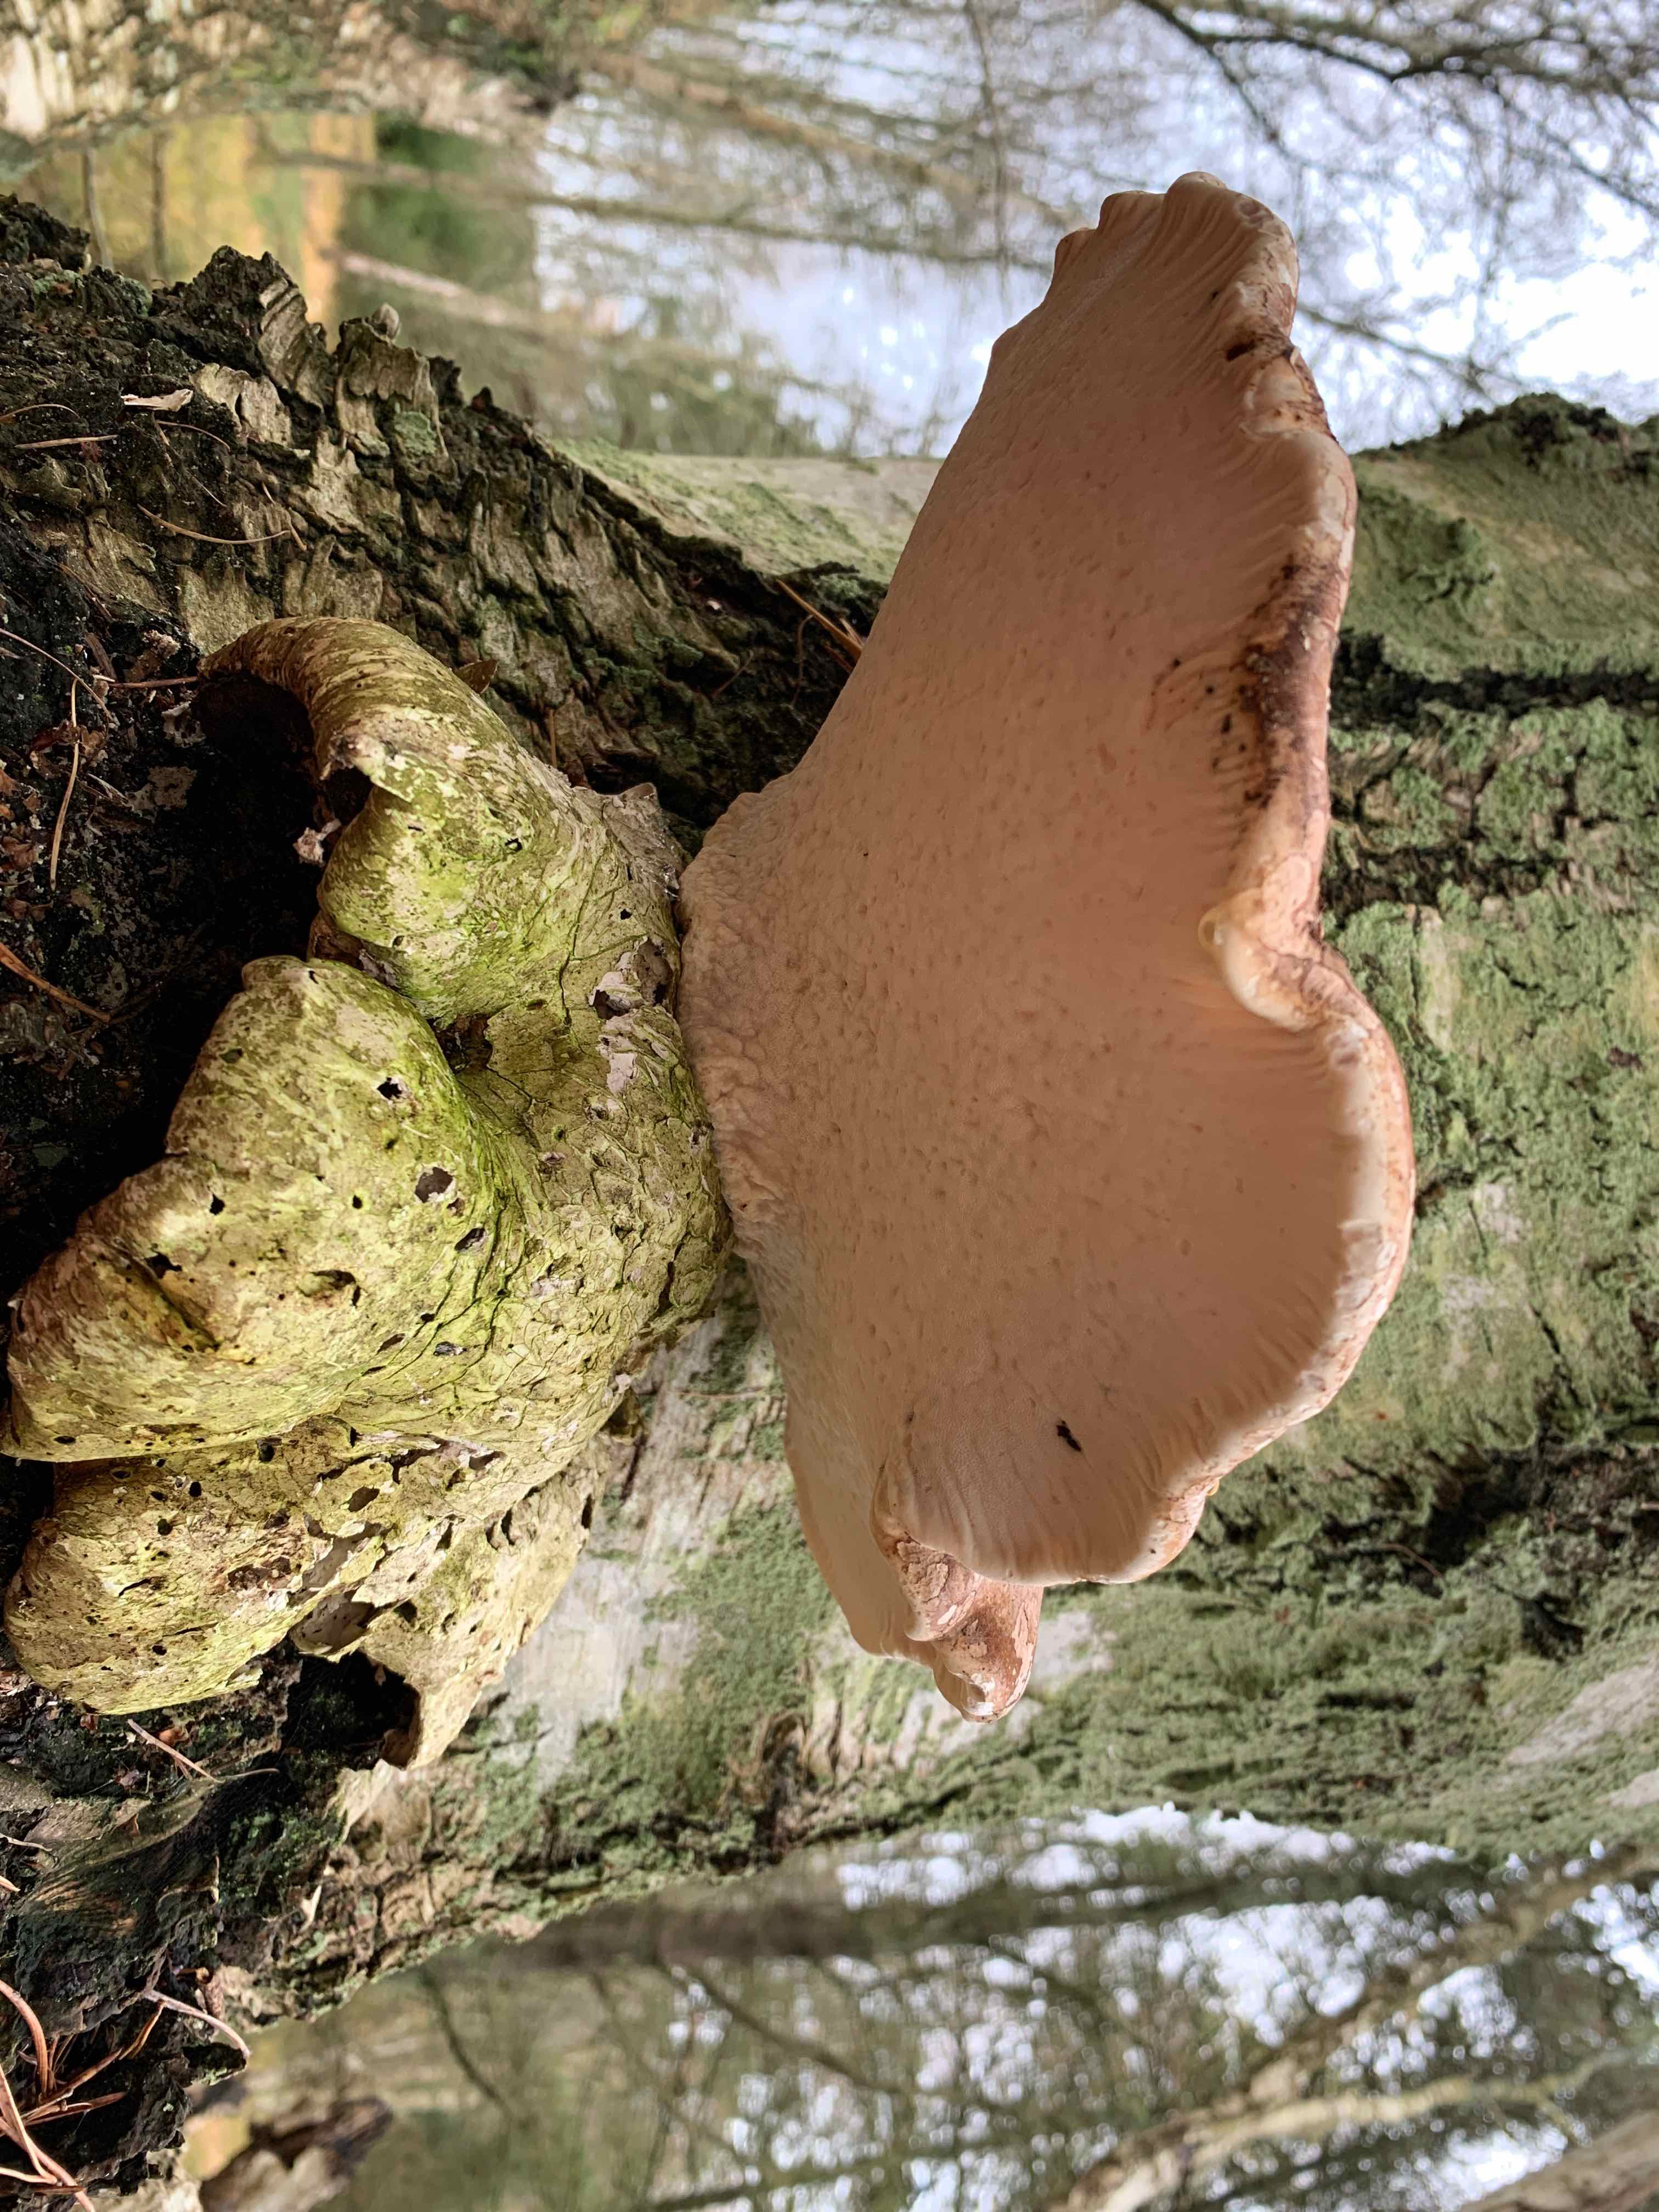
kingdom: Fungi
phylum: Basidiomycota
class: Agaricomycetes
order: Polyporales
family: Fomitopsidaceae
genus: Fomitopsis
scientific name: Fomitopsis betulina
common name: birkeporesvamp
